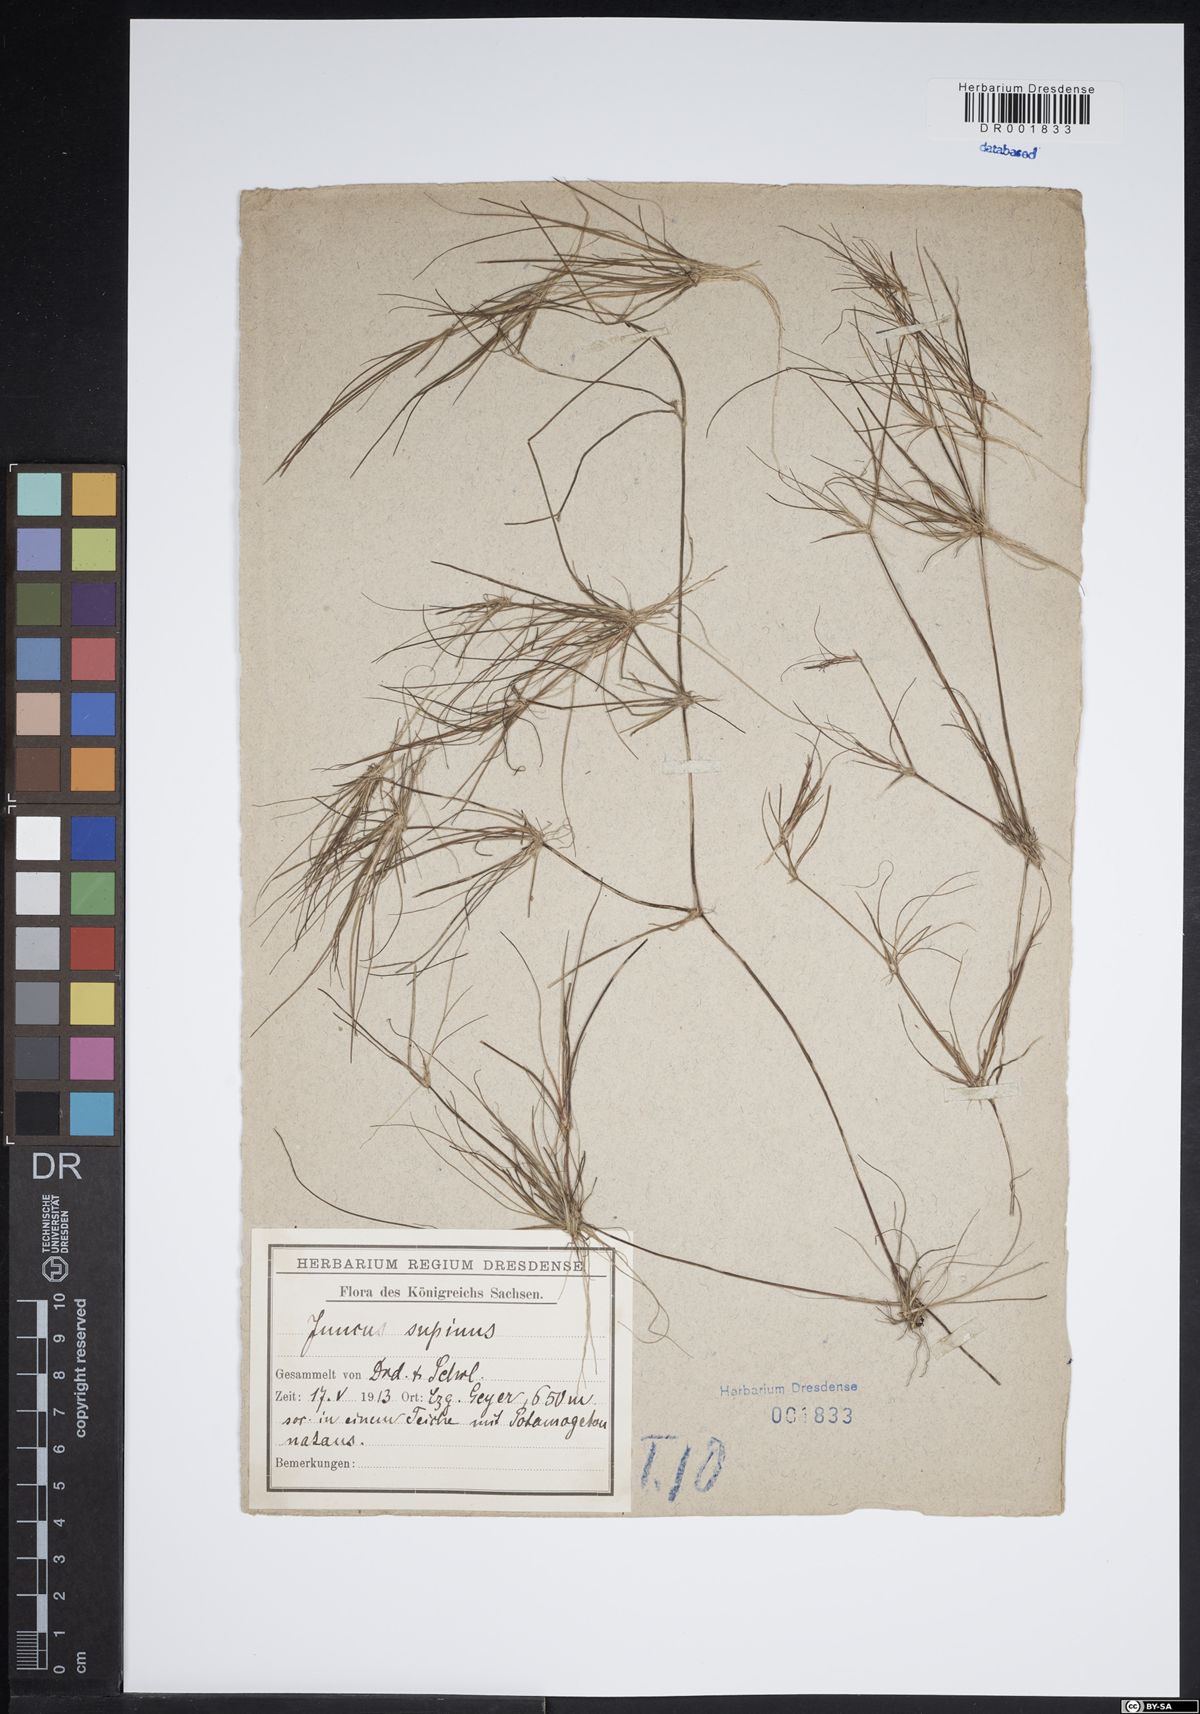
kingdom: Plantae
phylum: Tracheophyta
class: Liliopsida
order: Poales
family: Juncaceae
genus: Juncus
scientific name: Juncus bulbosus
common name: Bulbous rush
